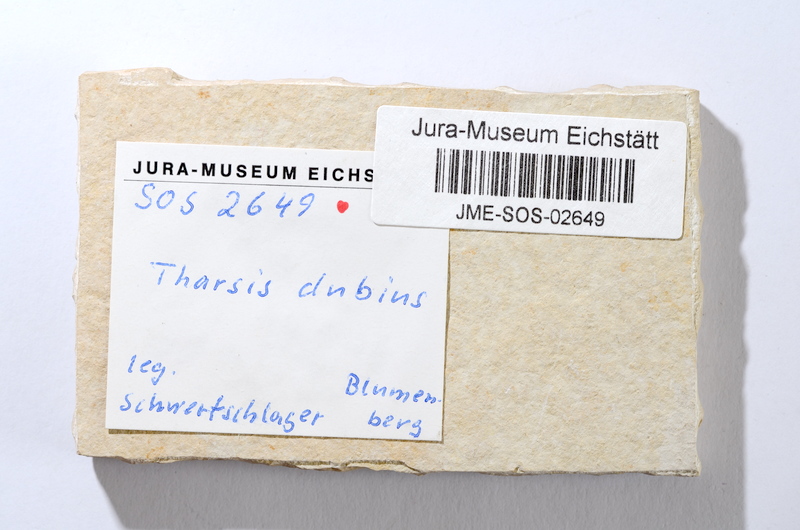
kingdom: Animalia
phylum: Chordata
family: Ascalaboidae
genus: Tharsis
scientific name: Tharsis dubius
